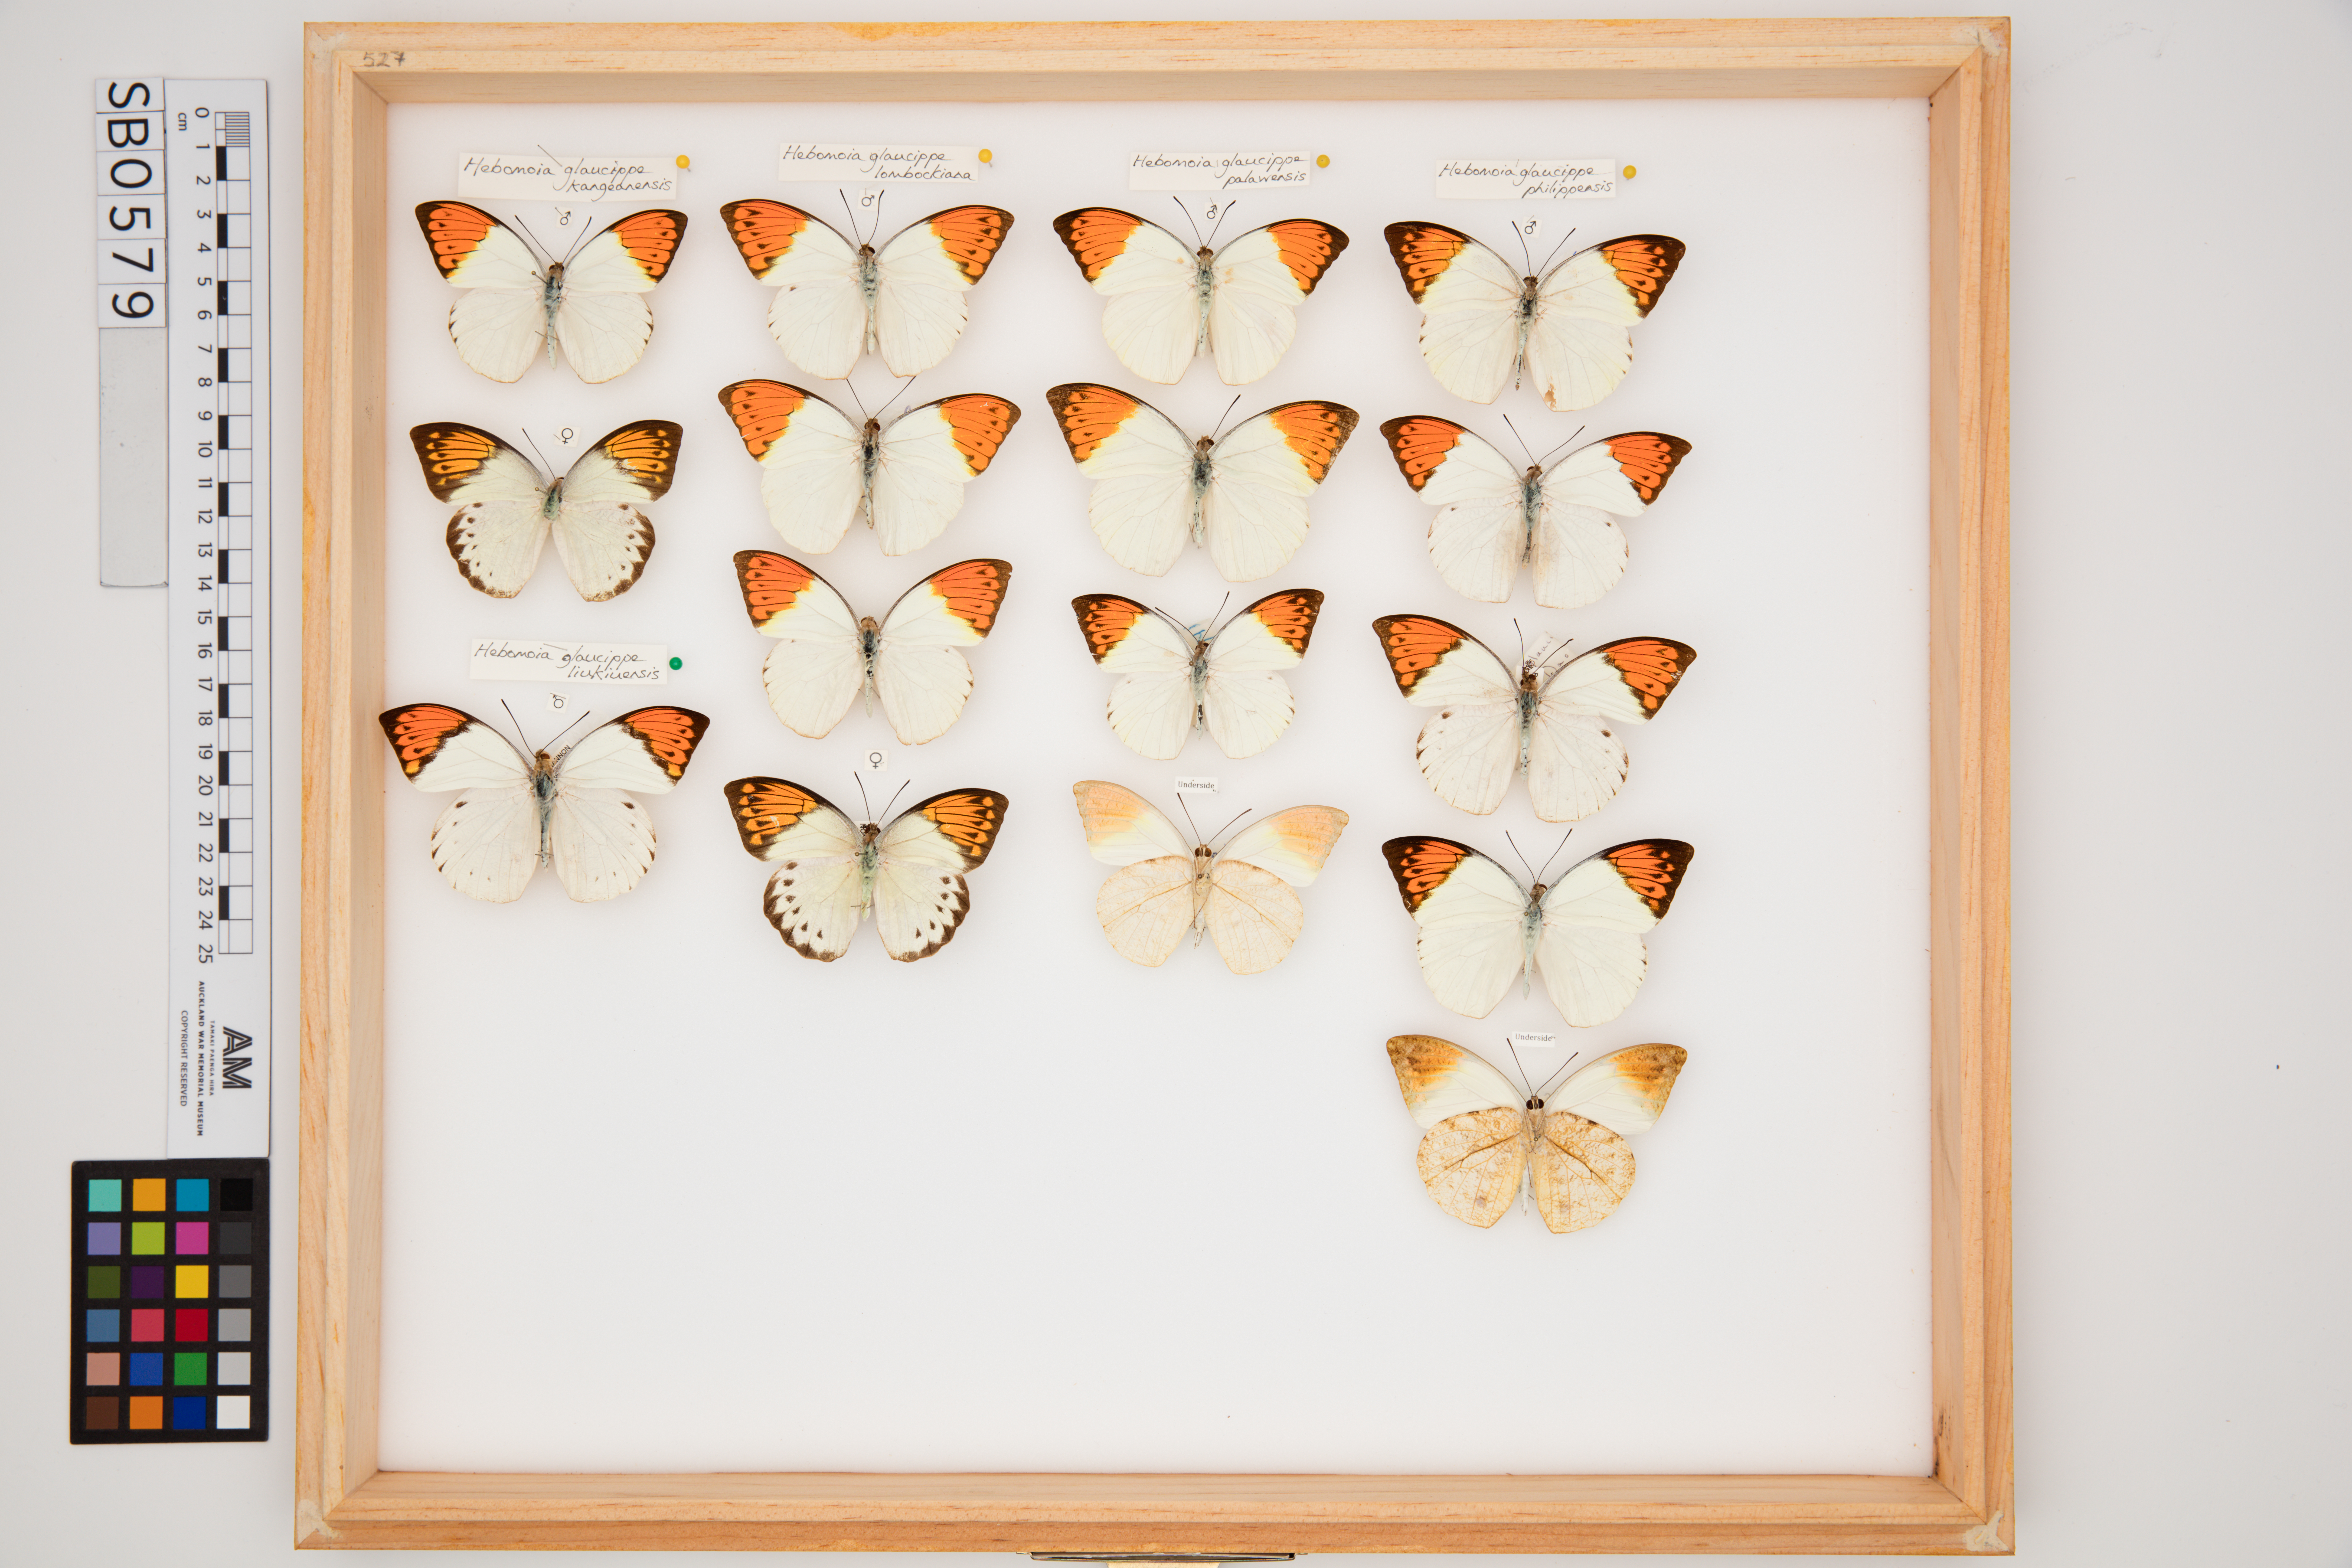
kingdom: Animalia
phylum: Arthropoda
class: Insecta
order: Lepidoptera
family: Pieridae
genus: Hebomoia
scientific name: Hebomoia glaucippe
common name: Great orange tip
